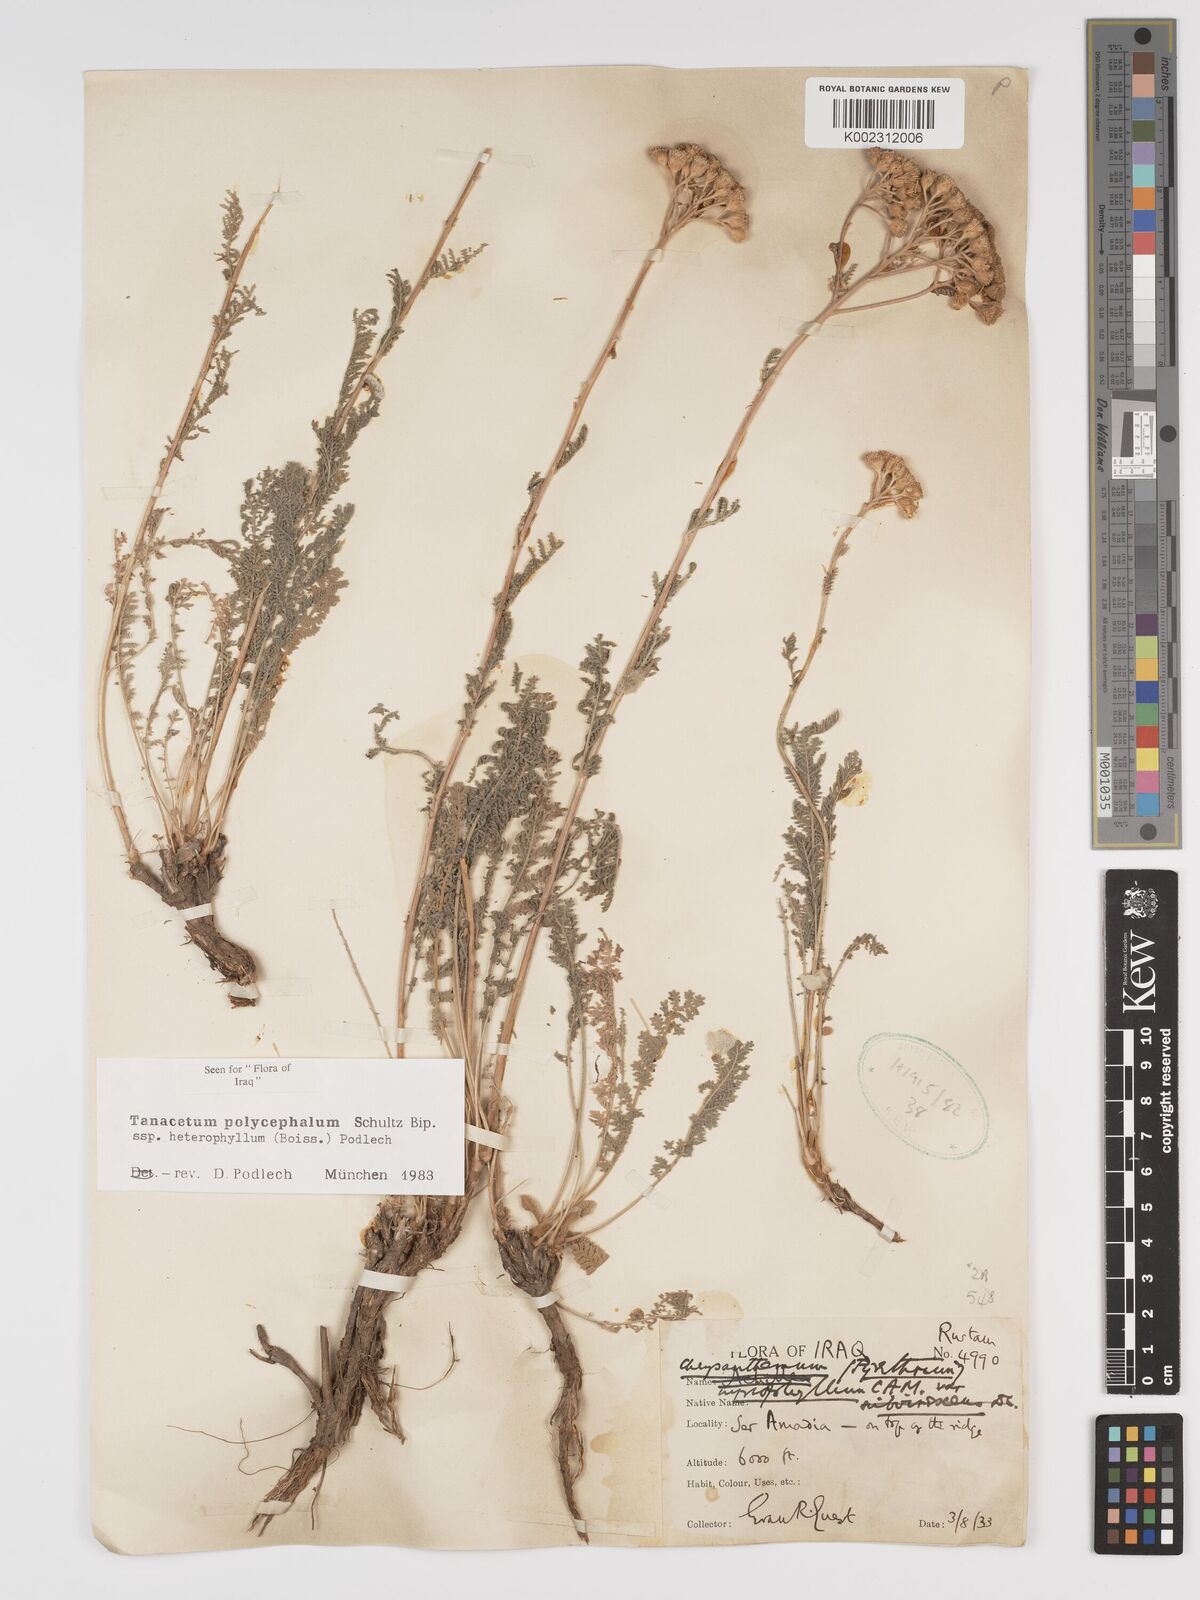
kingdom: Plantae
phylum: Tracheophyta
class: Magnoliopsida
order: Asterales
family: Asteraceae
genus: Tanacetum
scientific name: Tanacetum polycephalum
